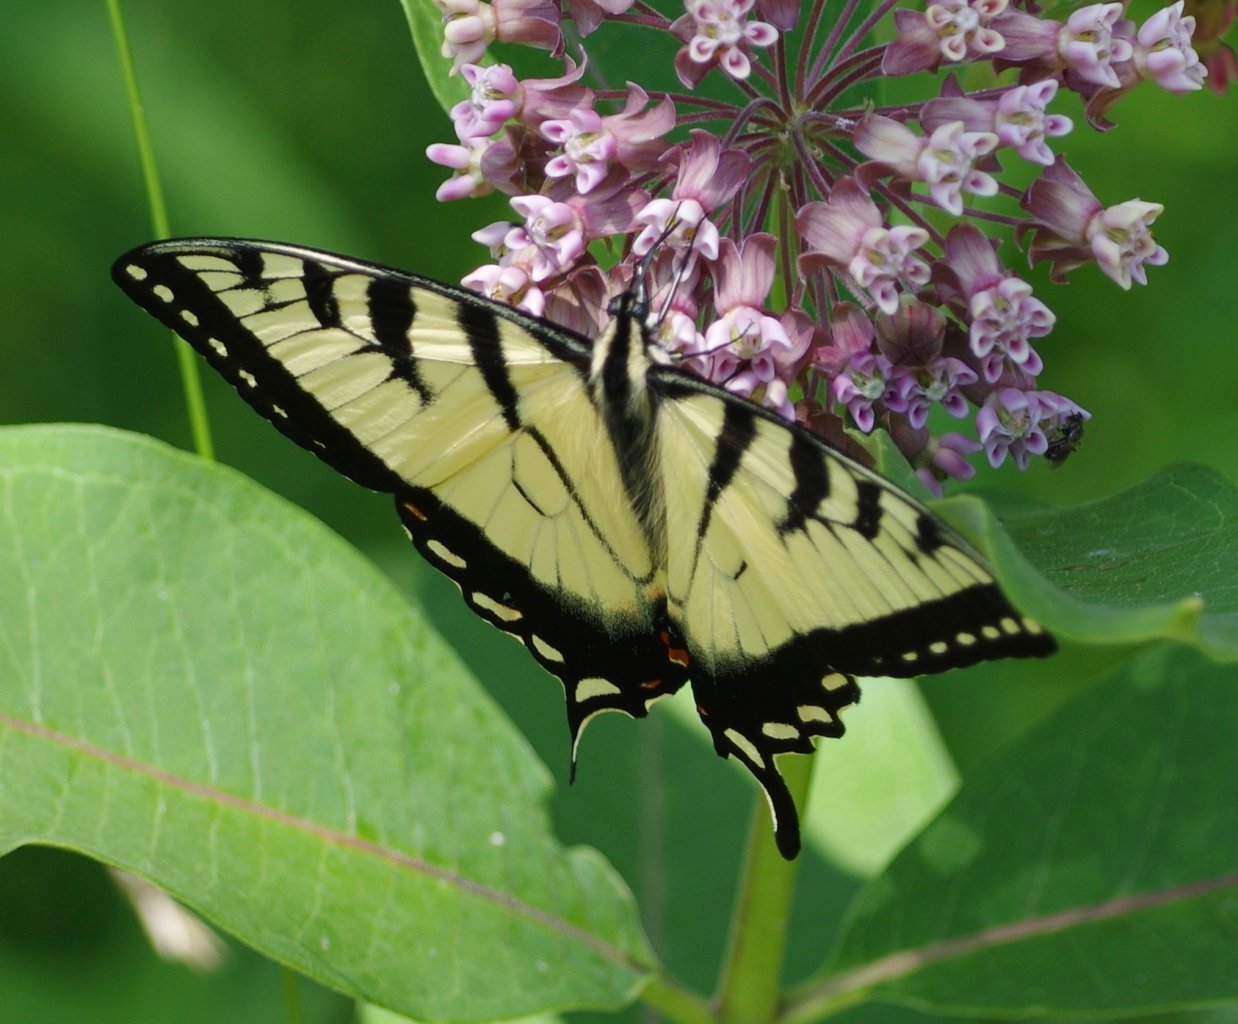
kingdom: Animalia
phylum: Arthropoda
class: Insecta
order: Lepidoptera
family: Papilionidae
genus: Pterourus
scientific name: Pterourus
